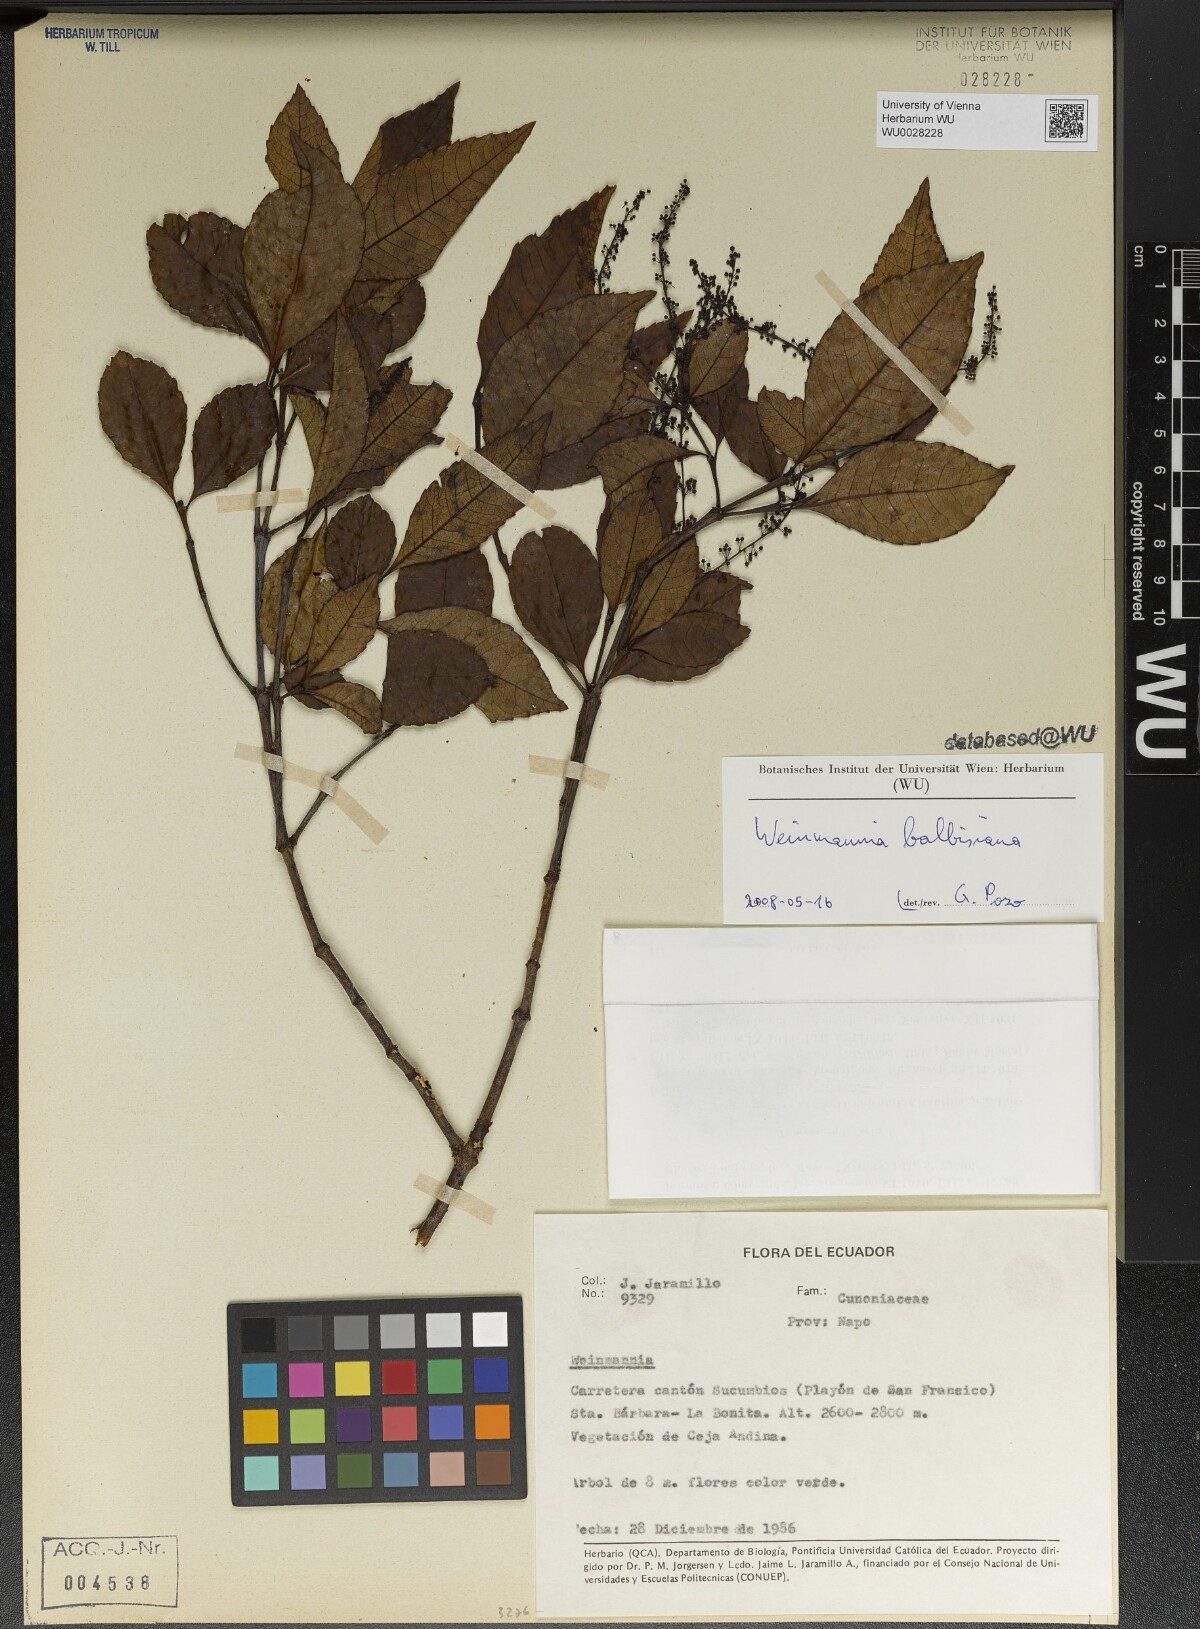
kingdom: Plantae
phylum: Tracheophyta
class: Magnoliopsida
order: Oxalidales
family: Cunoniaceae
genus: Weinmannia
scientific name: Weinmannia balbisana
